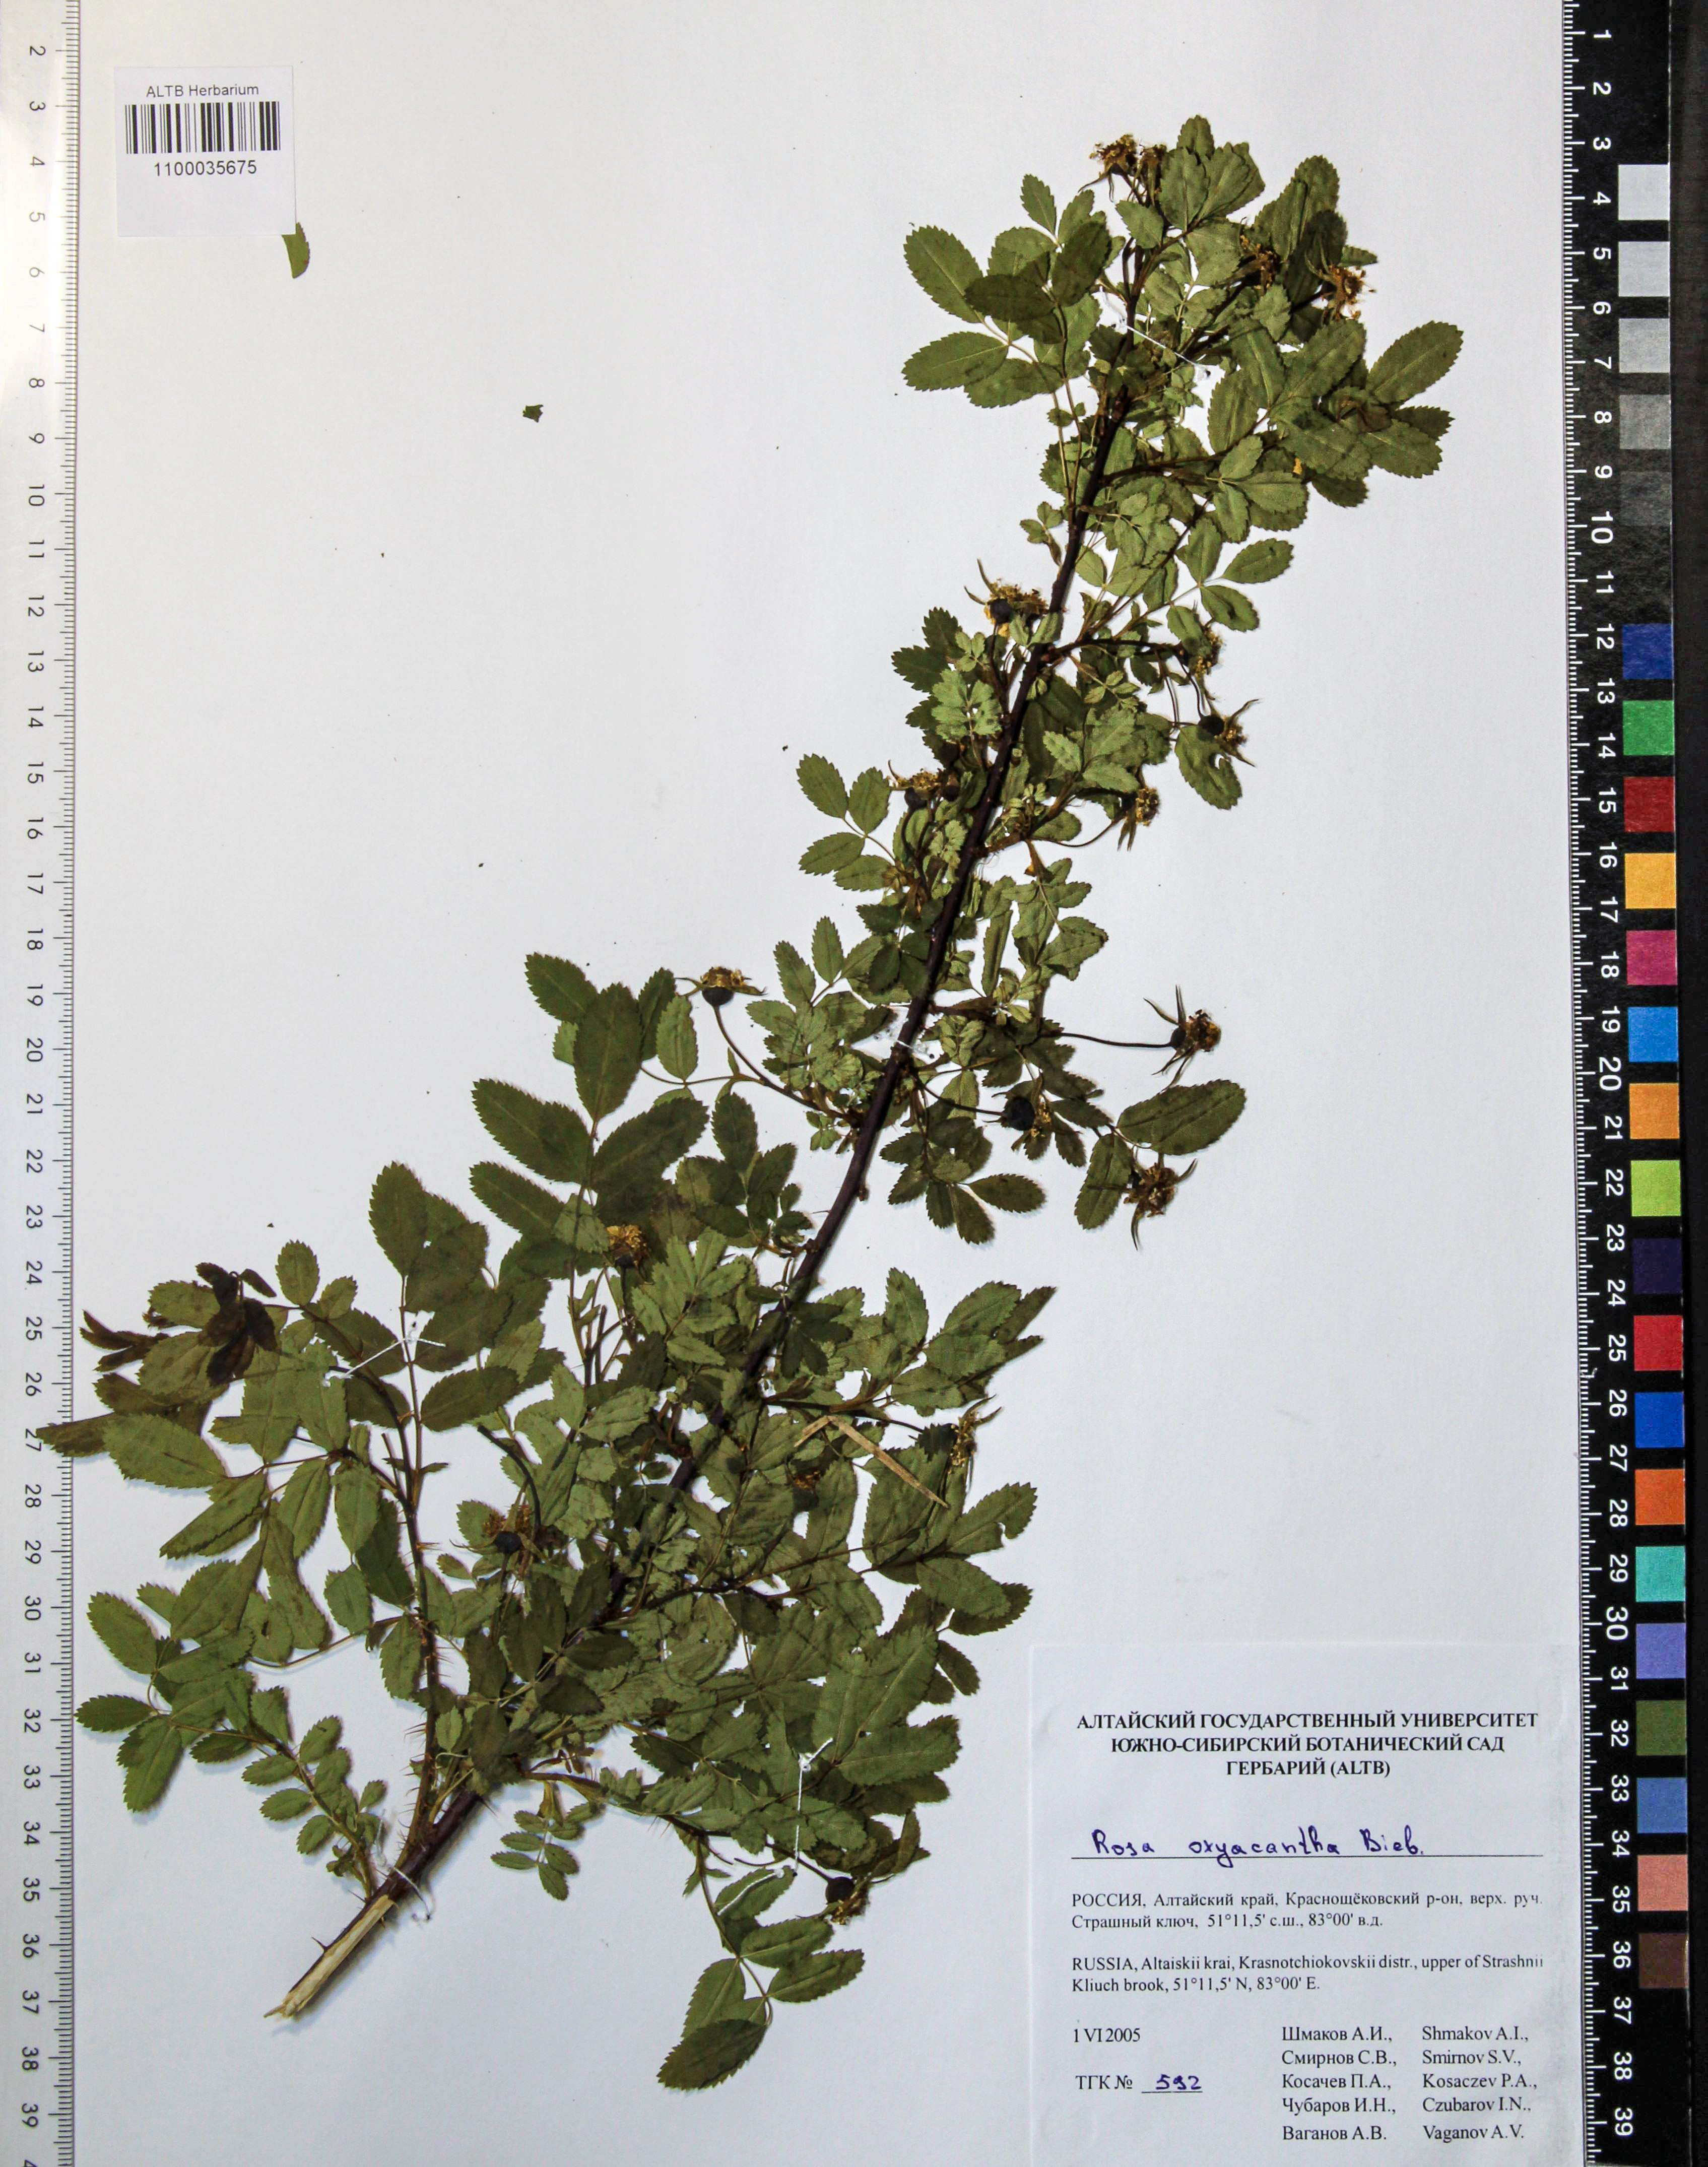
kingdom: Plantae
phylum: Tracheophyta
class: Magnoliopsida
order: Rosales
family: Rosaceae
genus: Rosa
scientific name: Rosa oxyacantha
